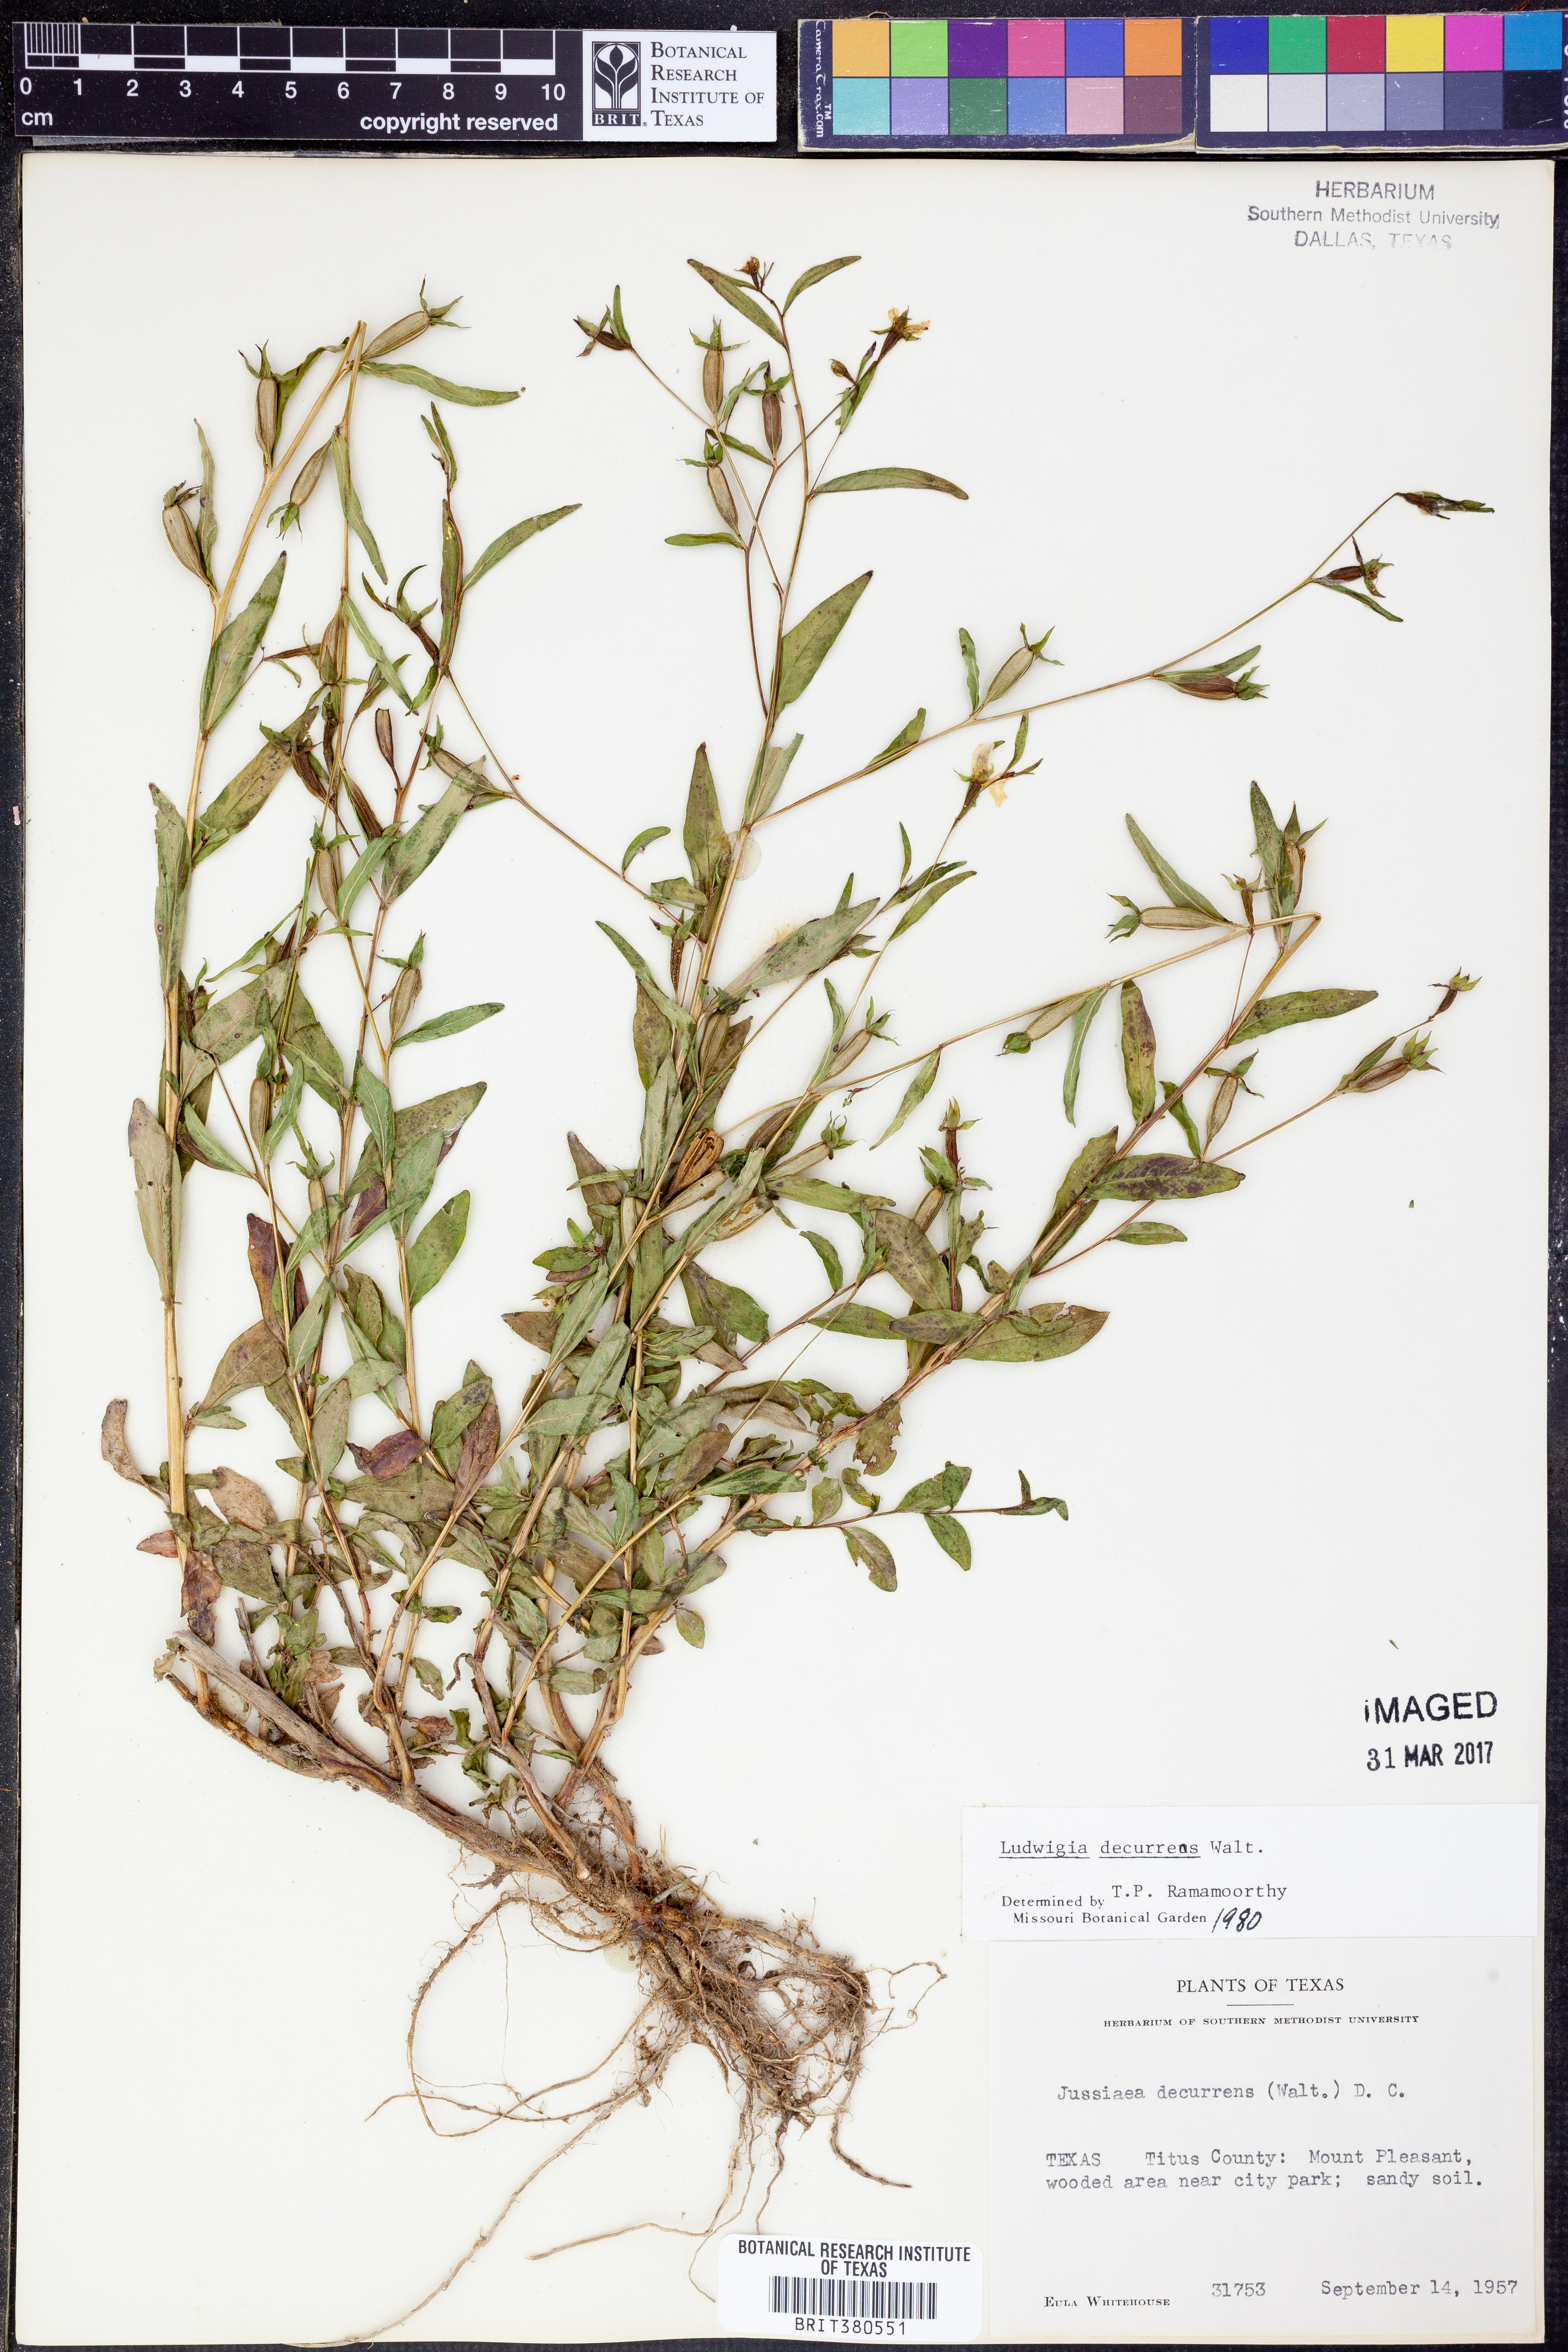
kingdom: Plantae
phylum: Tracheophyta
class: Magnoliopsida
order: Myrtales
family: Onagraceae
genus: Ludwigia
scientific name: Ludwigia decurrens
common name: Winged water-primrose
